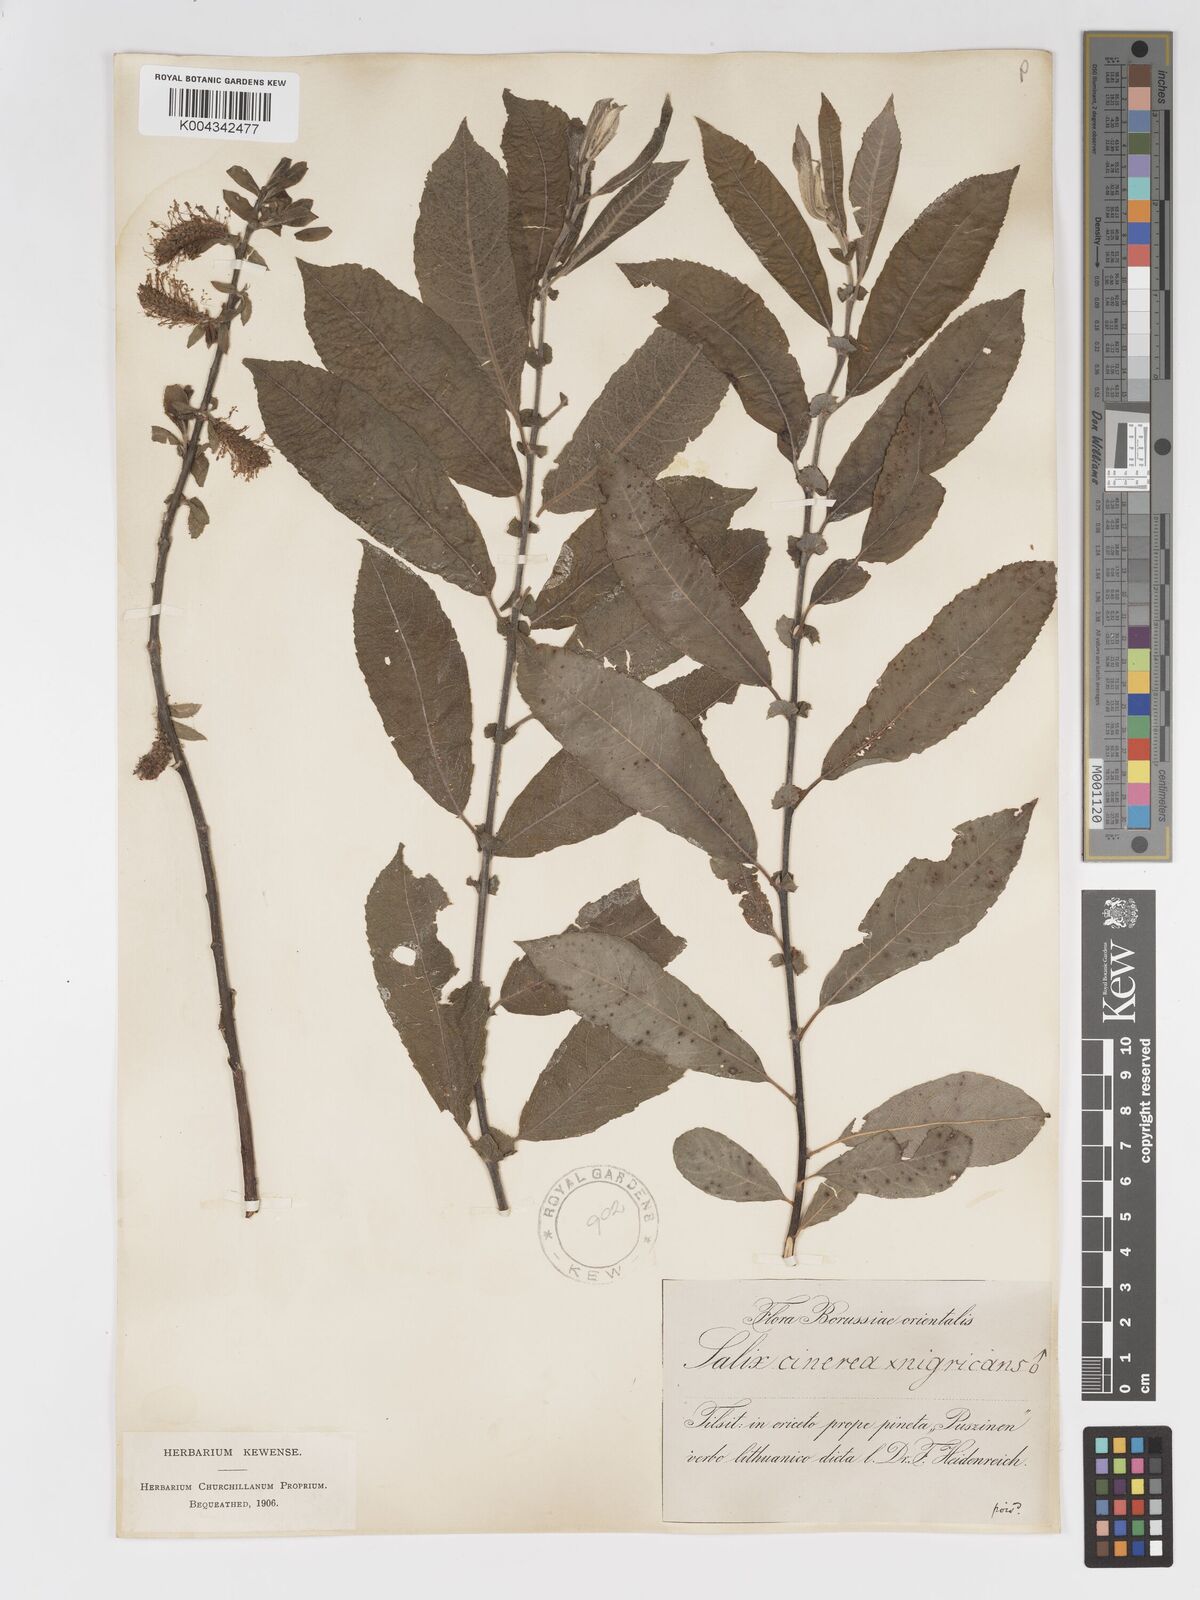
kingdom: Plantae
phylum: Tracheophyta
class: Magnoliopsida
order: Malpighiales
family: Salicaceae
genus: Salix
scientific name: Salix
